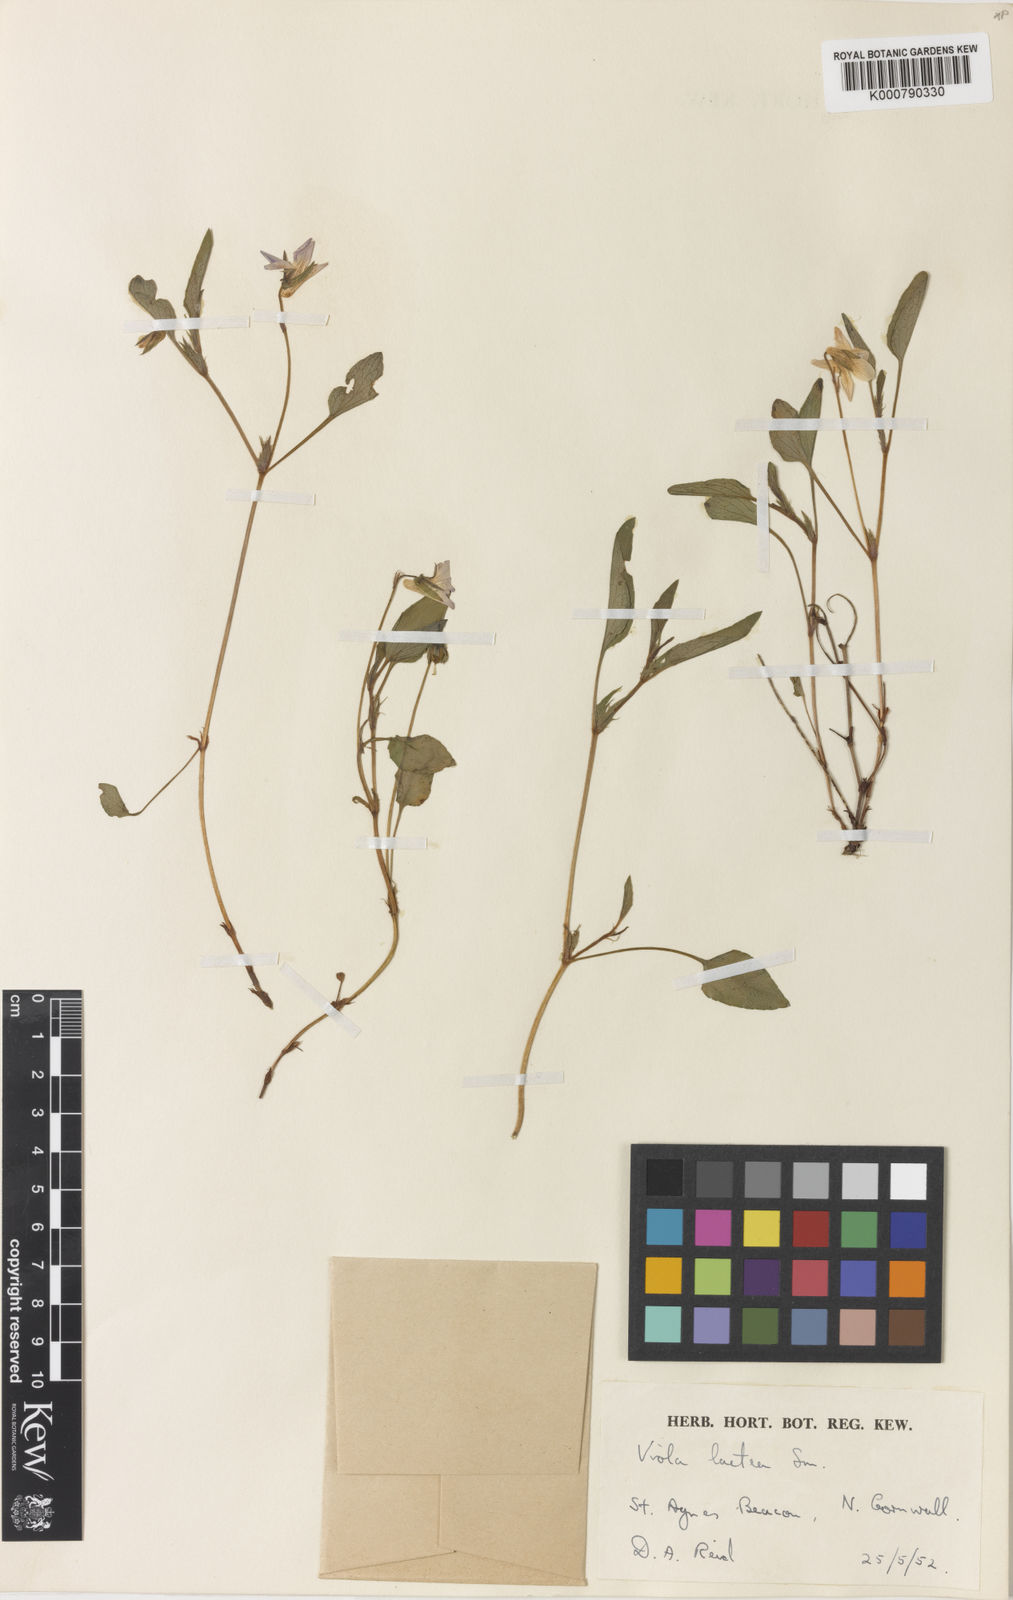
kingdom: Plantae
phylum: Tracheophyta
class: Magnoliopsida
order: Malpighiales
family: Violaceae
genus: Viola
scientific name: Viola lactea
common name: Pale dog-violet
